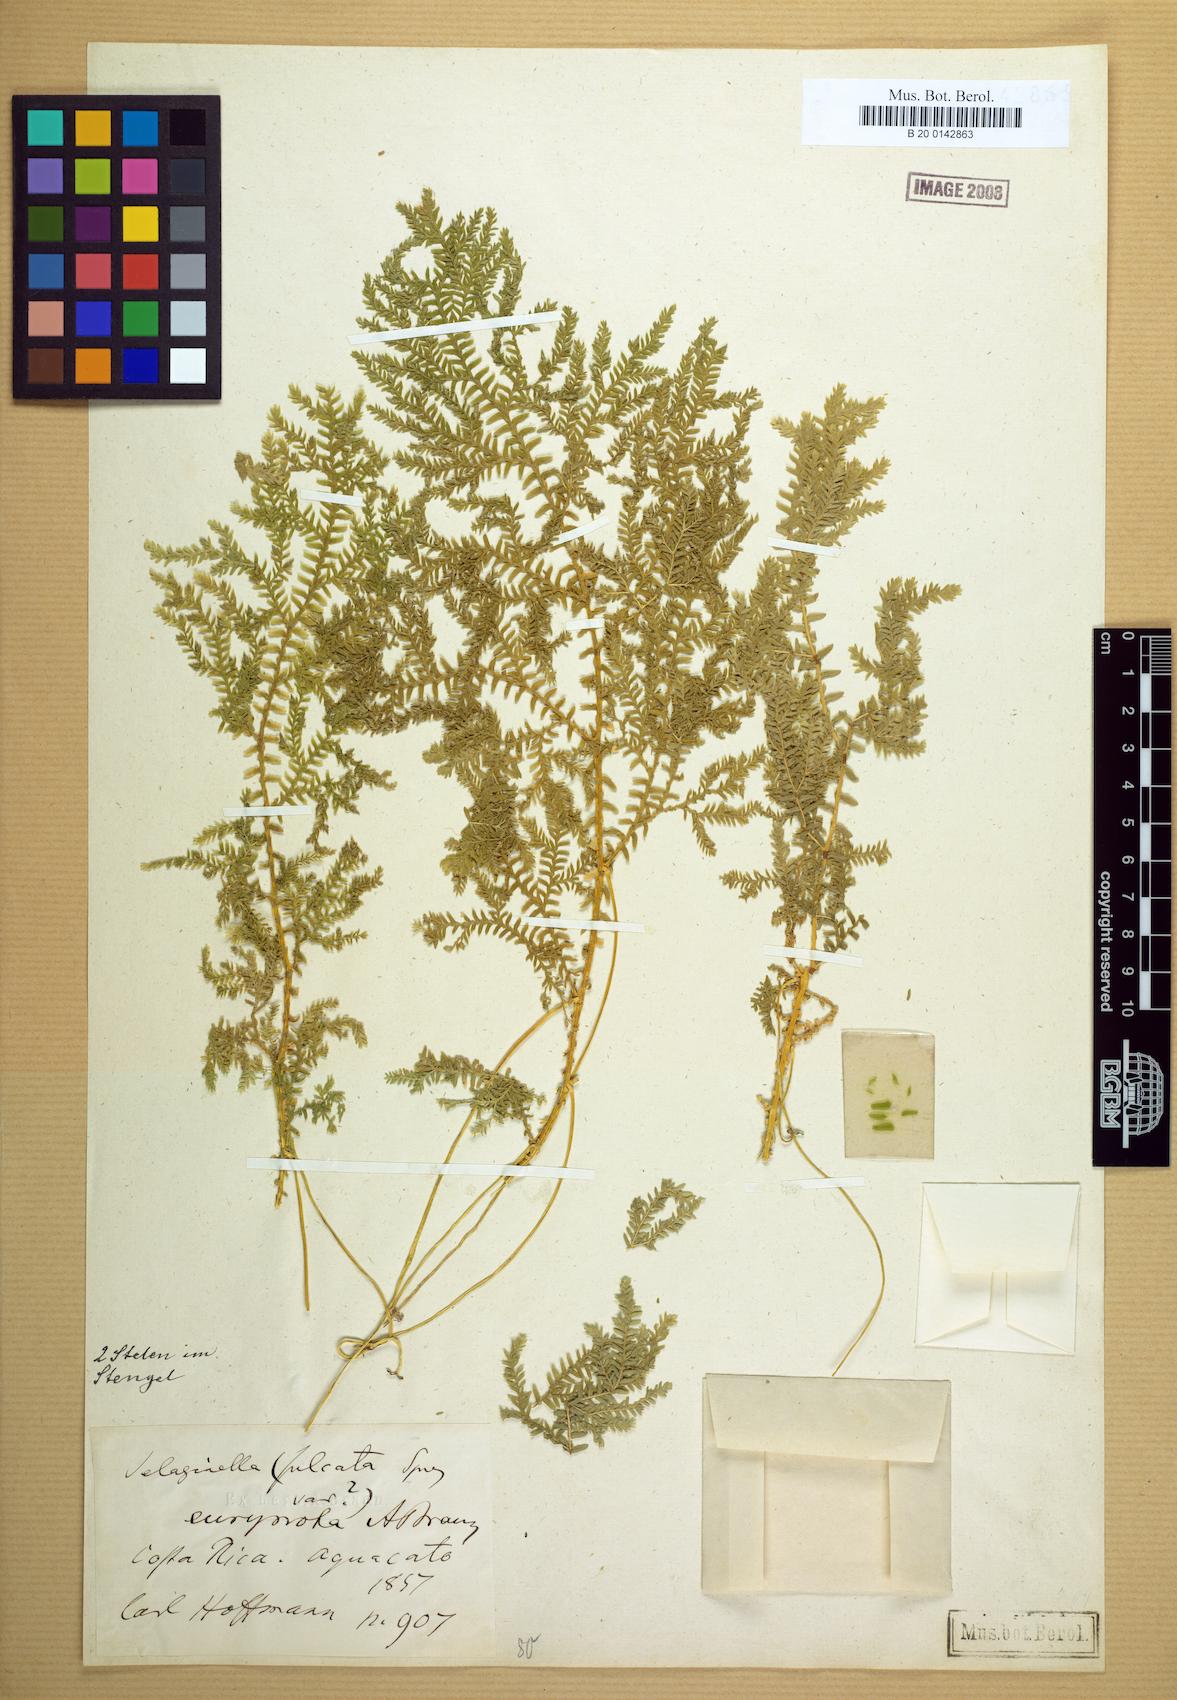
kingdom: Plantae
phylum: Tracheophyta
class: Lycopodiopsida
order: Selaginellales
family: Selaginellaceae
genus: Selaginella
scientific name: Selaginella eurynota
